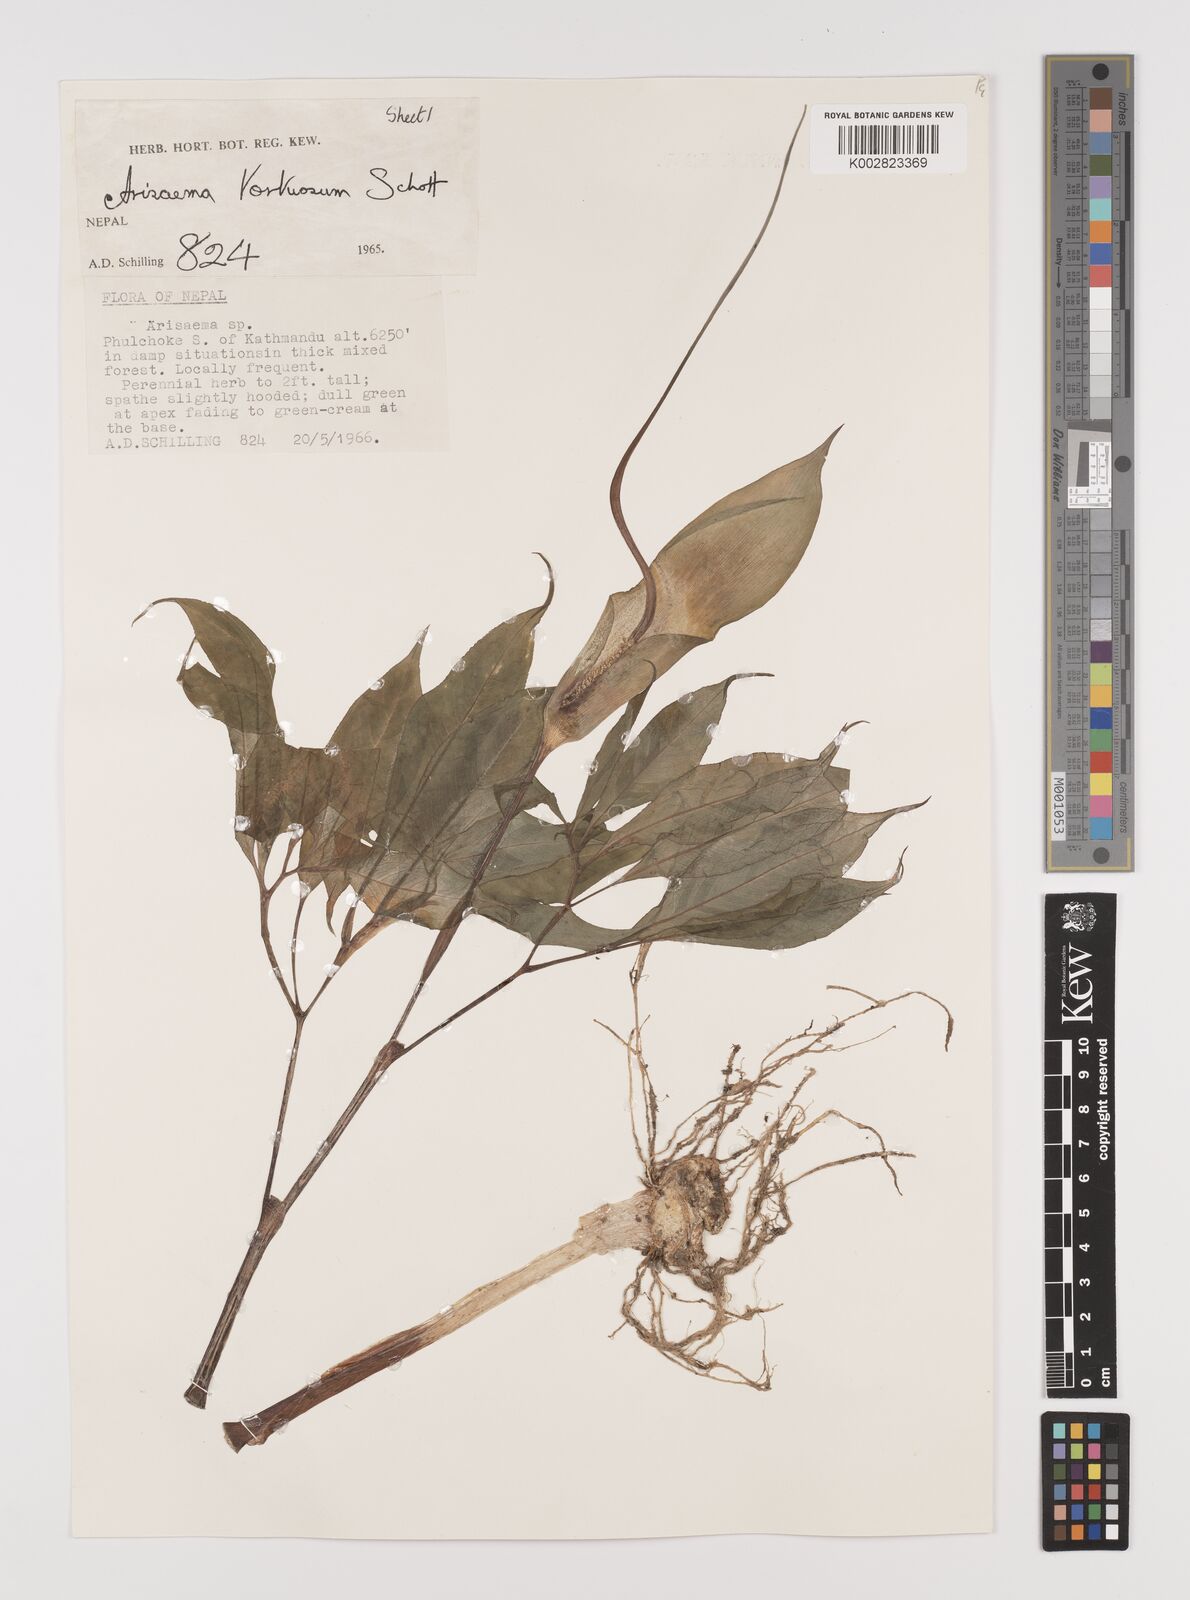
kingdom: Plantae
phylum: Tracheophyta
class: Liliopsida
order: Alismatales
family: Araceae
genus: Arisaema
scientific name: Arisaema tortuosum
